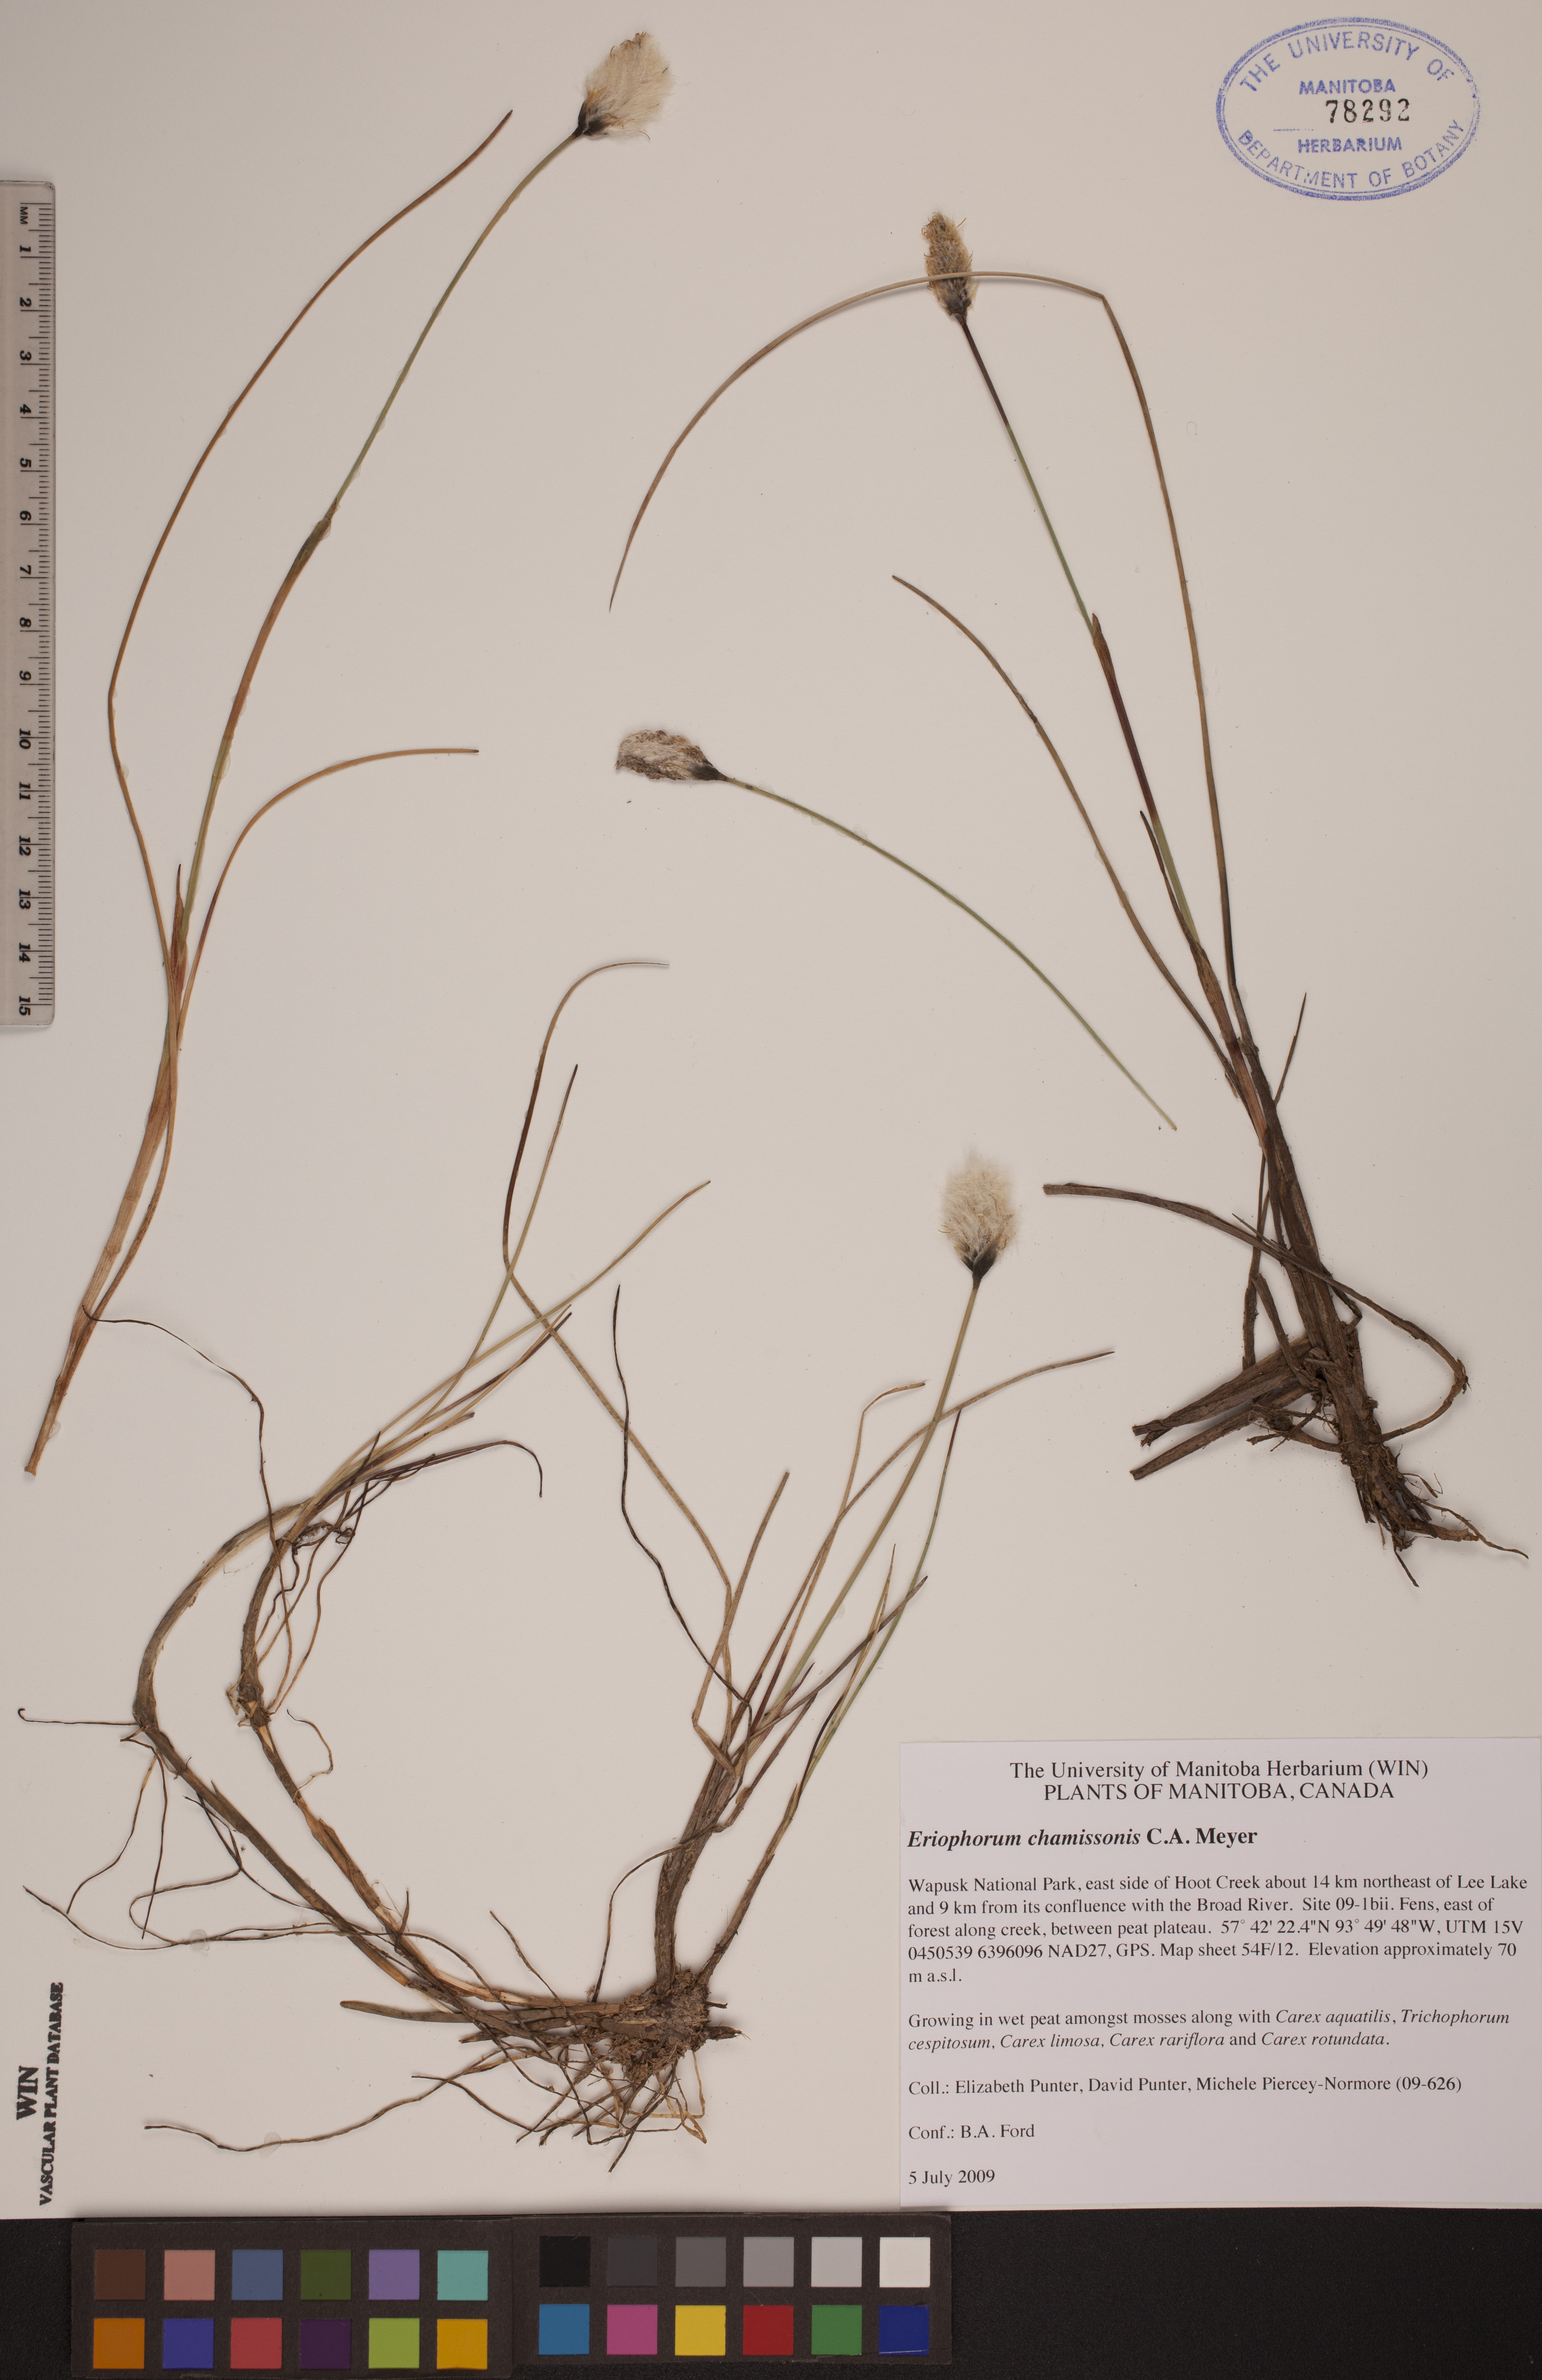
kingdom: Plantae
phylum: Tracheophyta
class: Liliopsida
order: Poales
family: Cyperaceae
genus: Eriophorum
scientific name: Eriophorum chamissonis
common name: Chamisso's cottongrass
